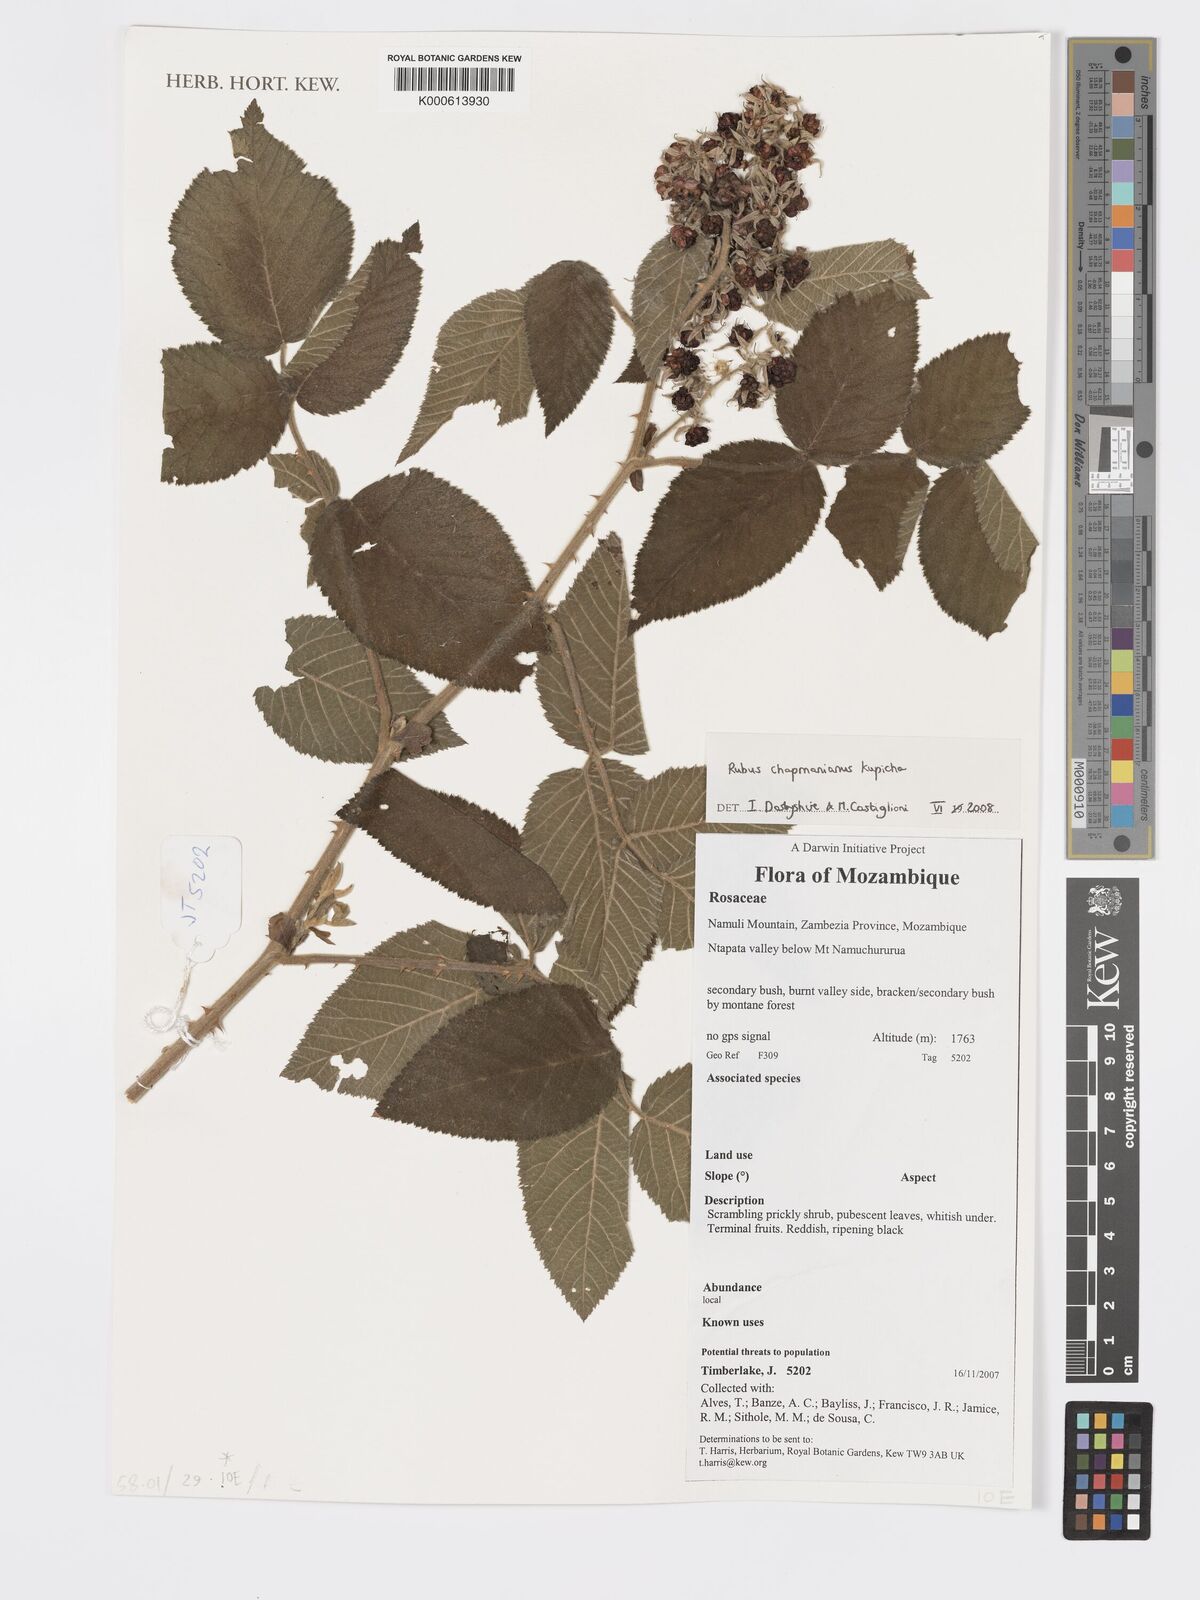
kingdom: Plantae
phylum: Tracheophyta
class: Magnoliopsida
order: Rosales
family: Rosaceae
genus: Rubus
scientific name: Rubus chapmanianus
